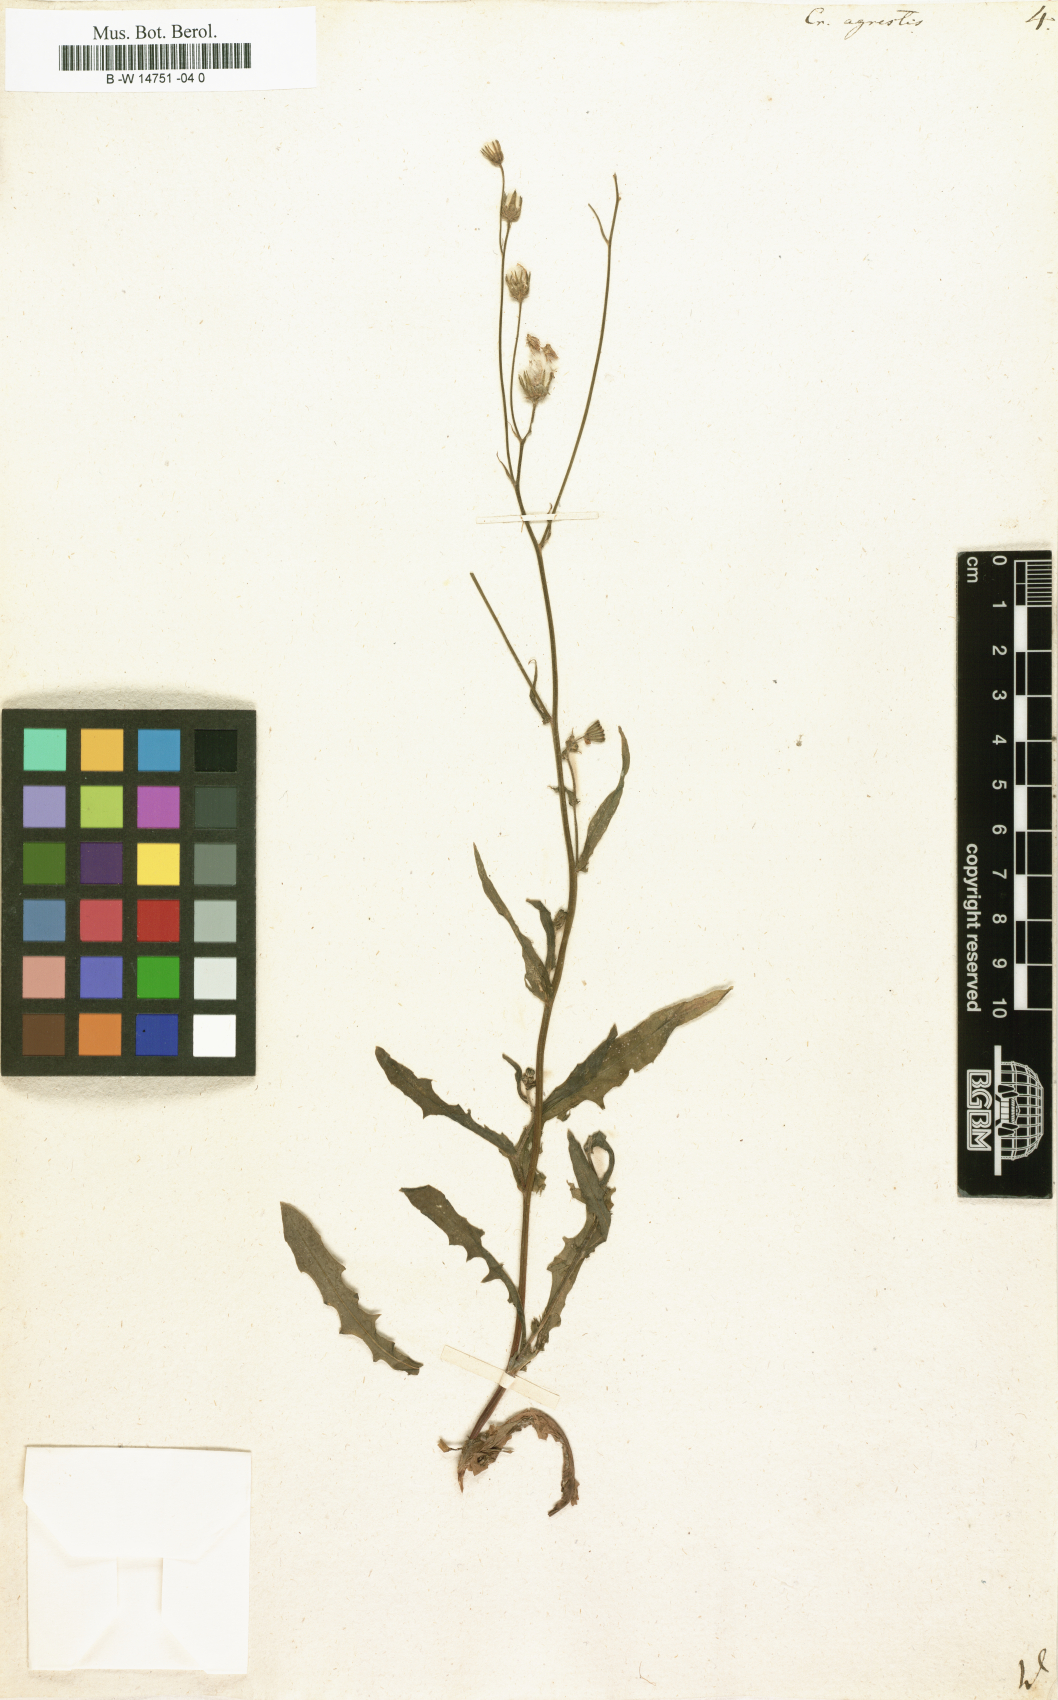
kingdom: Plantae
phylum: Tracheophyta
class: Magnoliopsida
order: Asterales
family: Asteraceae
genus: Crepis
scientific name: Crepis
